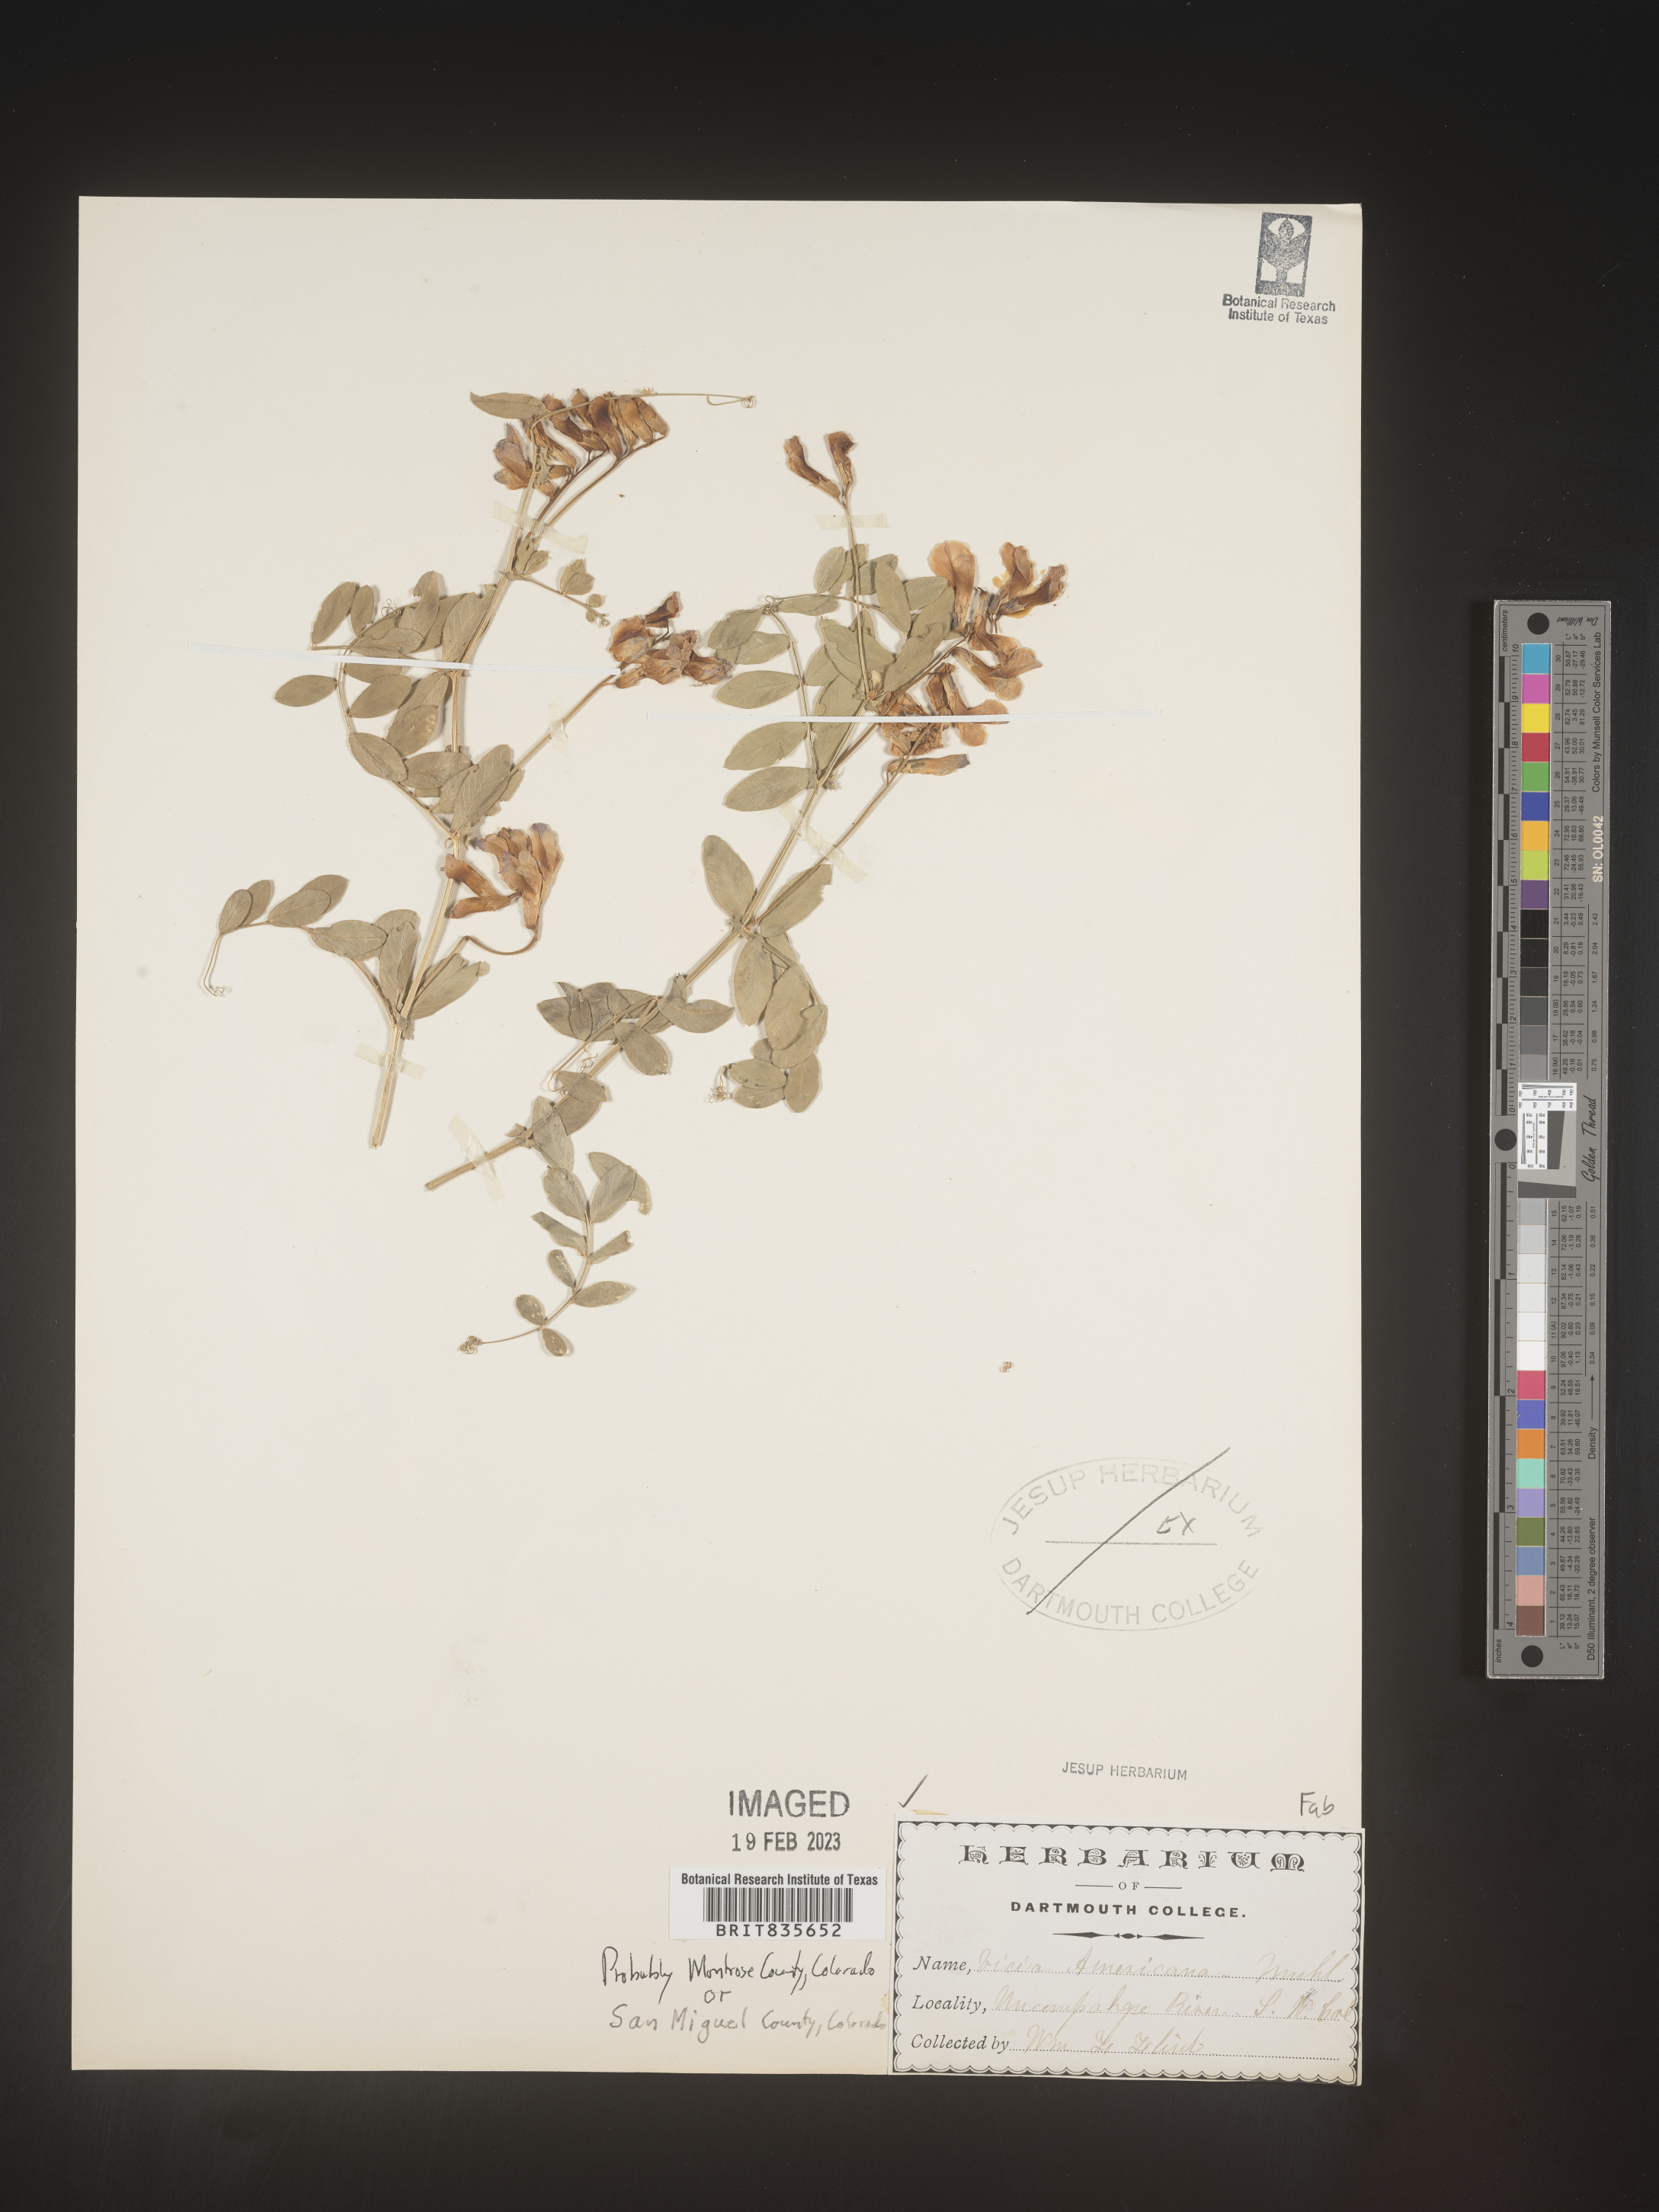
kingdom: Plantae
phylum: Tracheophyta
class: Magnoliopsida
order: Fabales
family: Fabaceae
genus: Vicia
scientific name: Vicia americana
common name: American vetch
